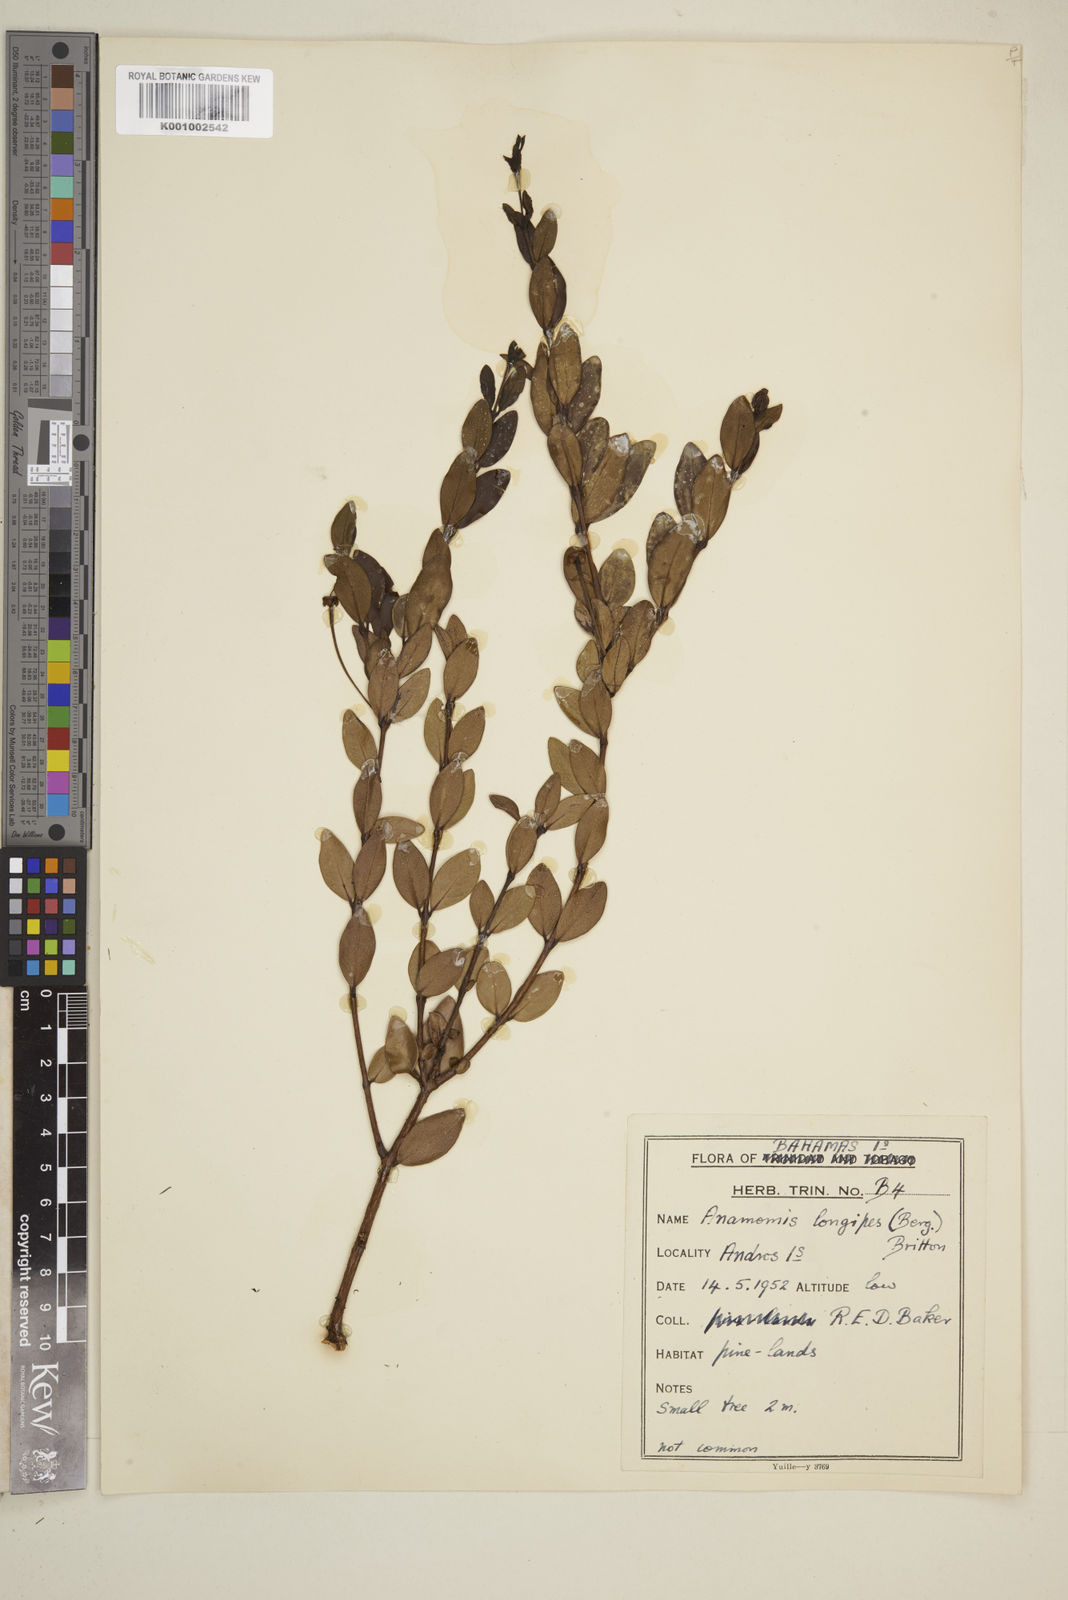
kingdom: Plantae
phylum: Tracheophyta
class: Magnoliopsida
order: Myrtales
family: Myrtaceae
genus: Mosiera
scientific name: Mosiera longipes
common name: Bahama stopper
